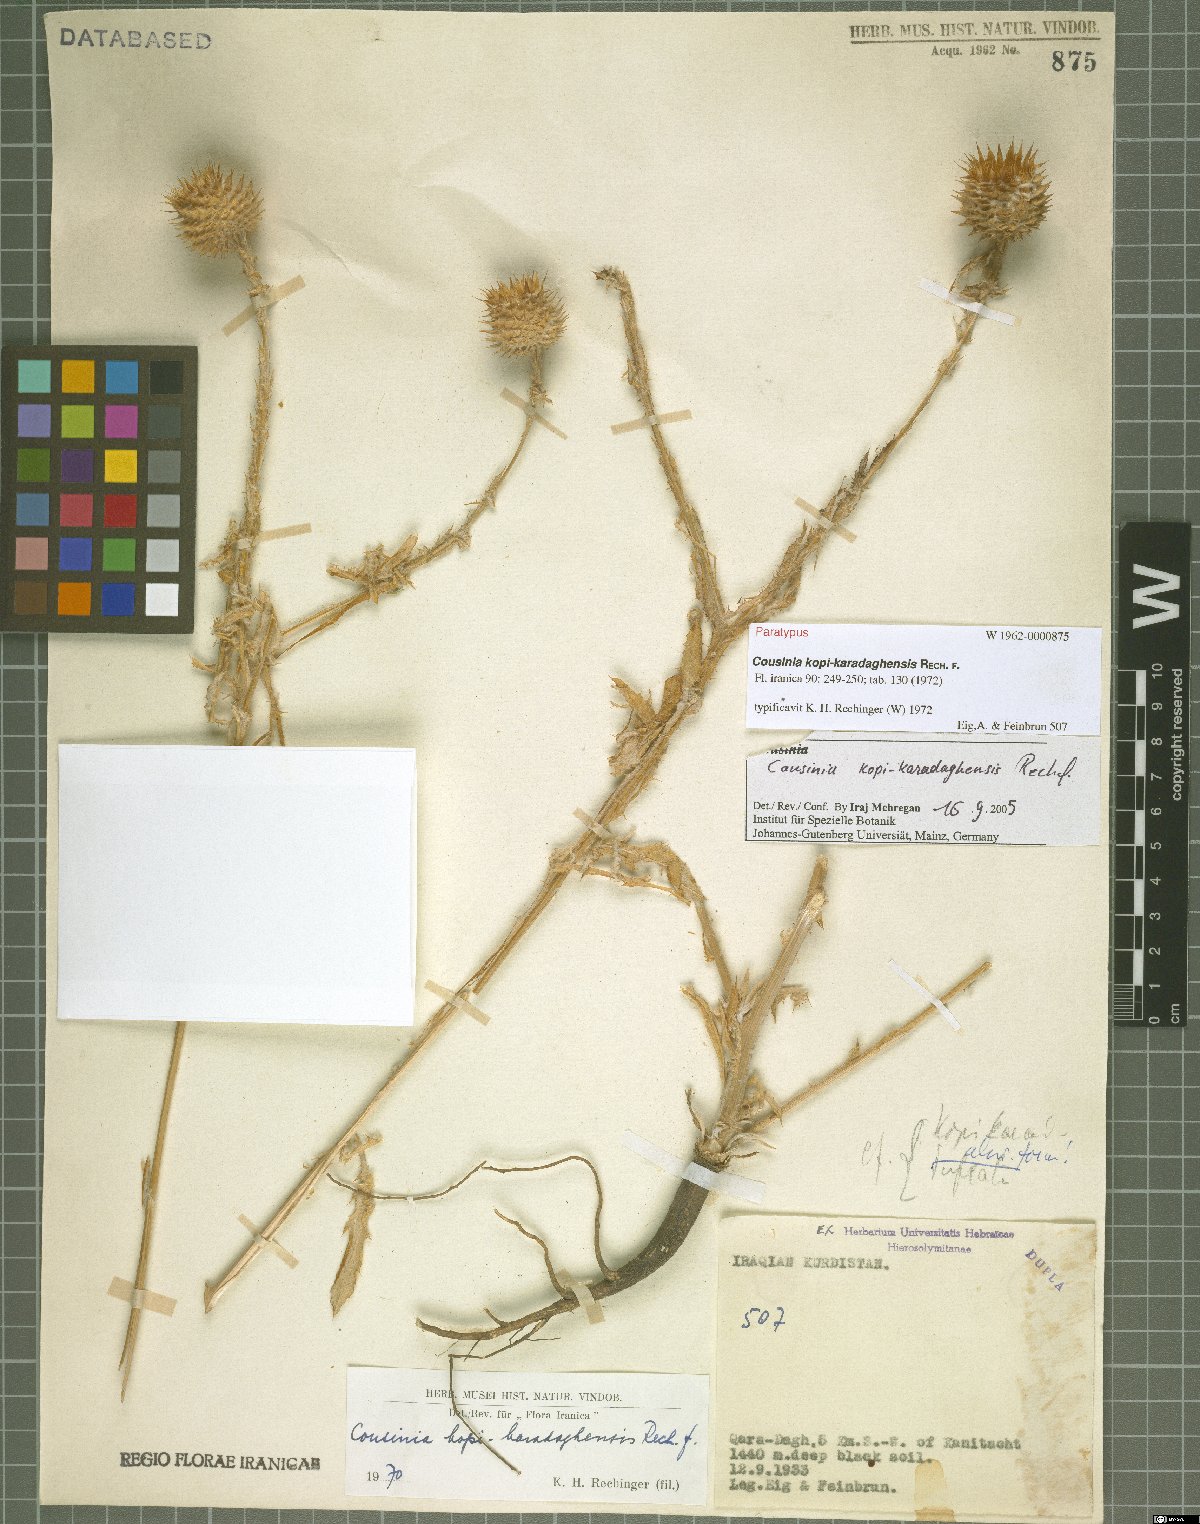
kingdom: Plantae
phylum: Tracheophyta
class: Magnoliopsida
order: Asterales
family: Asteraceae
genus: Cousinia
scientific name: Cousinia kopi-karadaghensis
